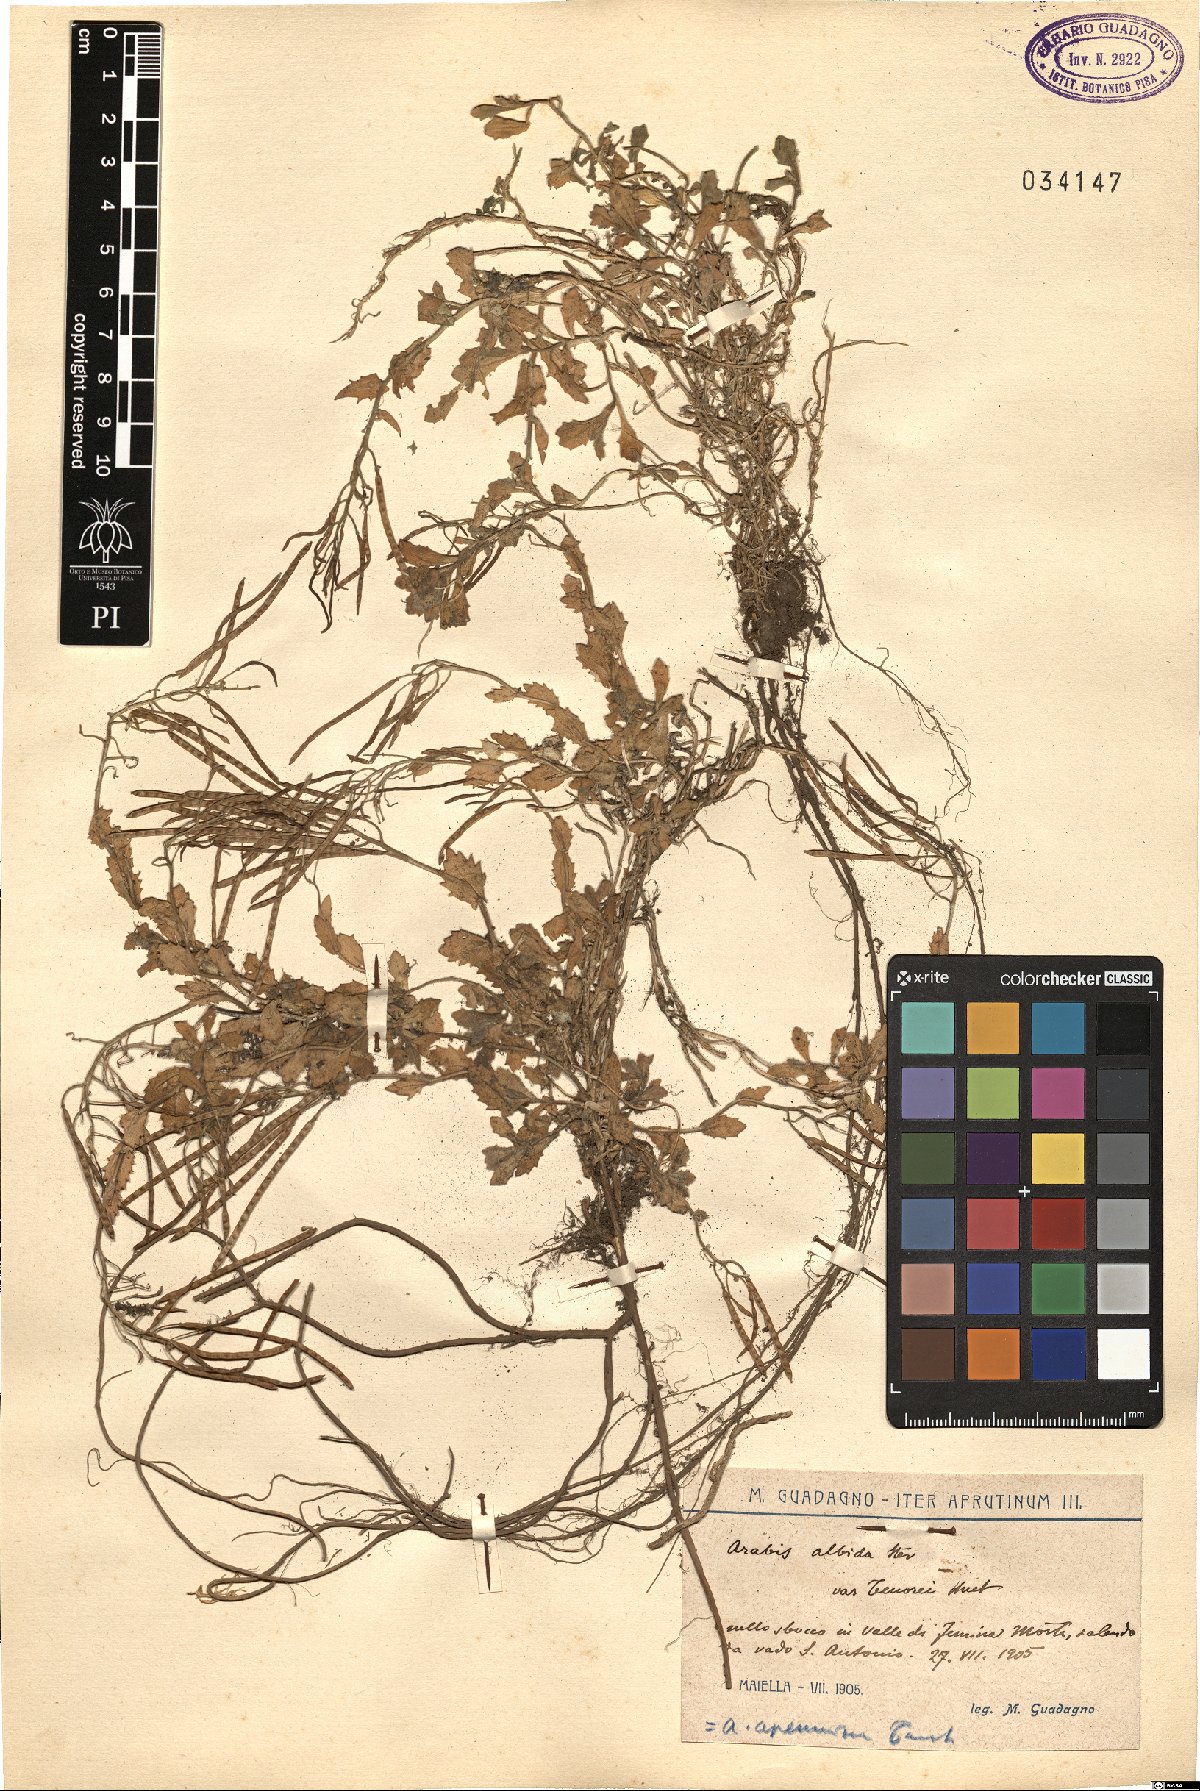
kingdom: Plantae
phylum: Tracheophyta
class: Magnoliopsida
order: Brassicales
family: Brassicaceae
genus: Arabis
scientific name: Arabis
